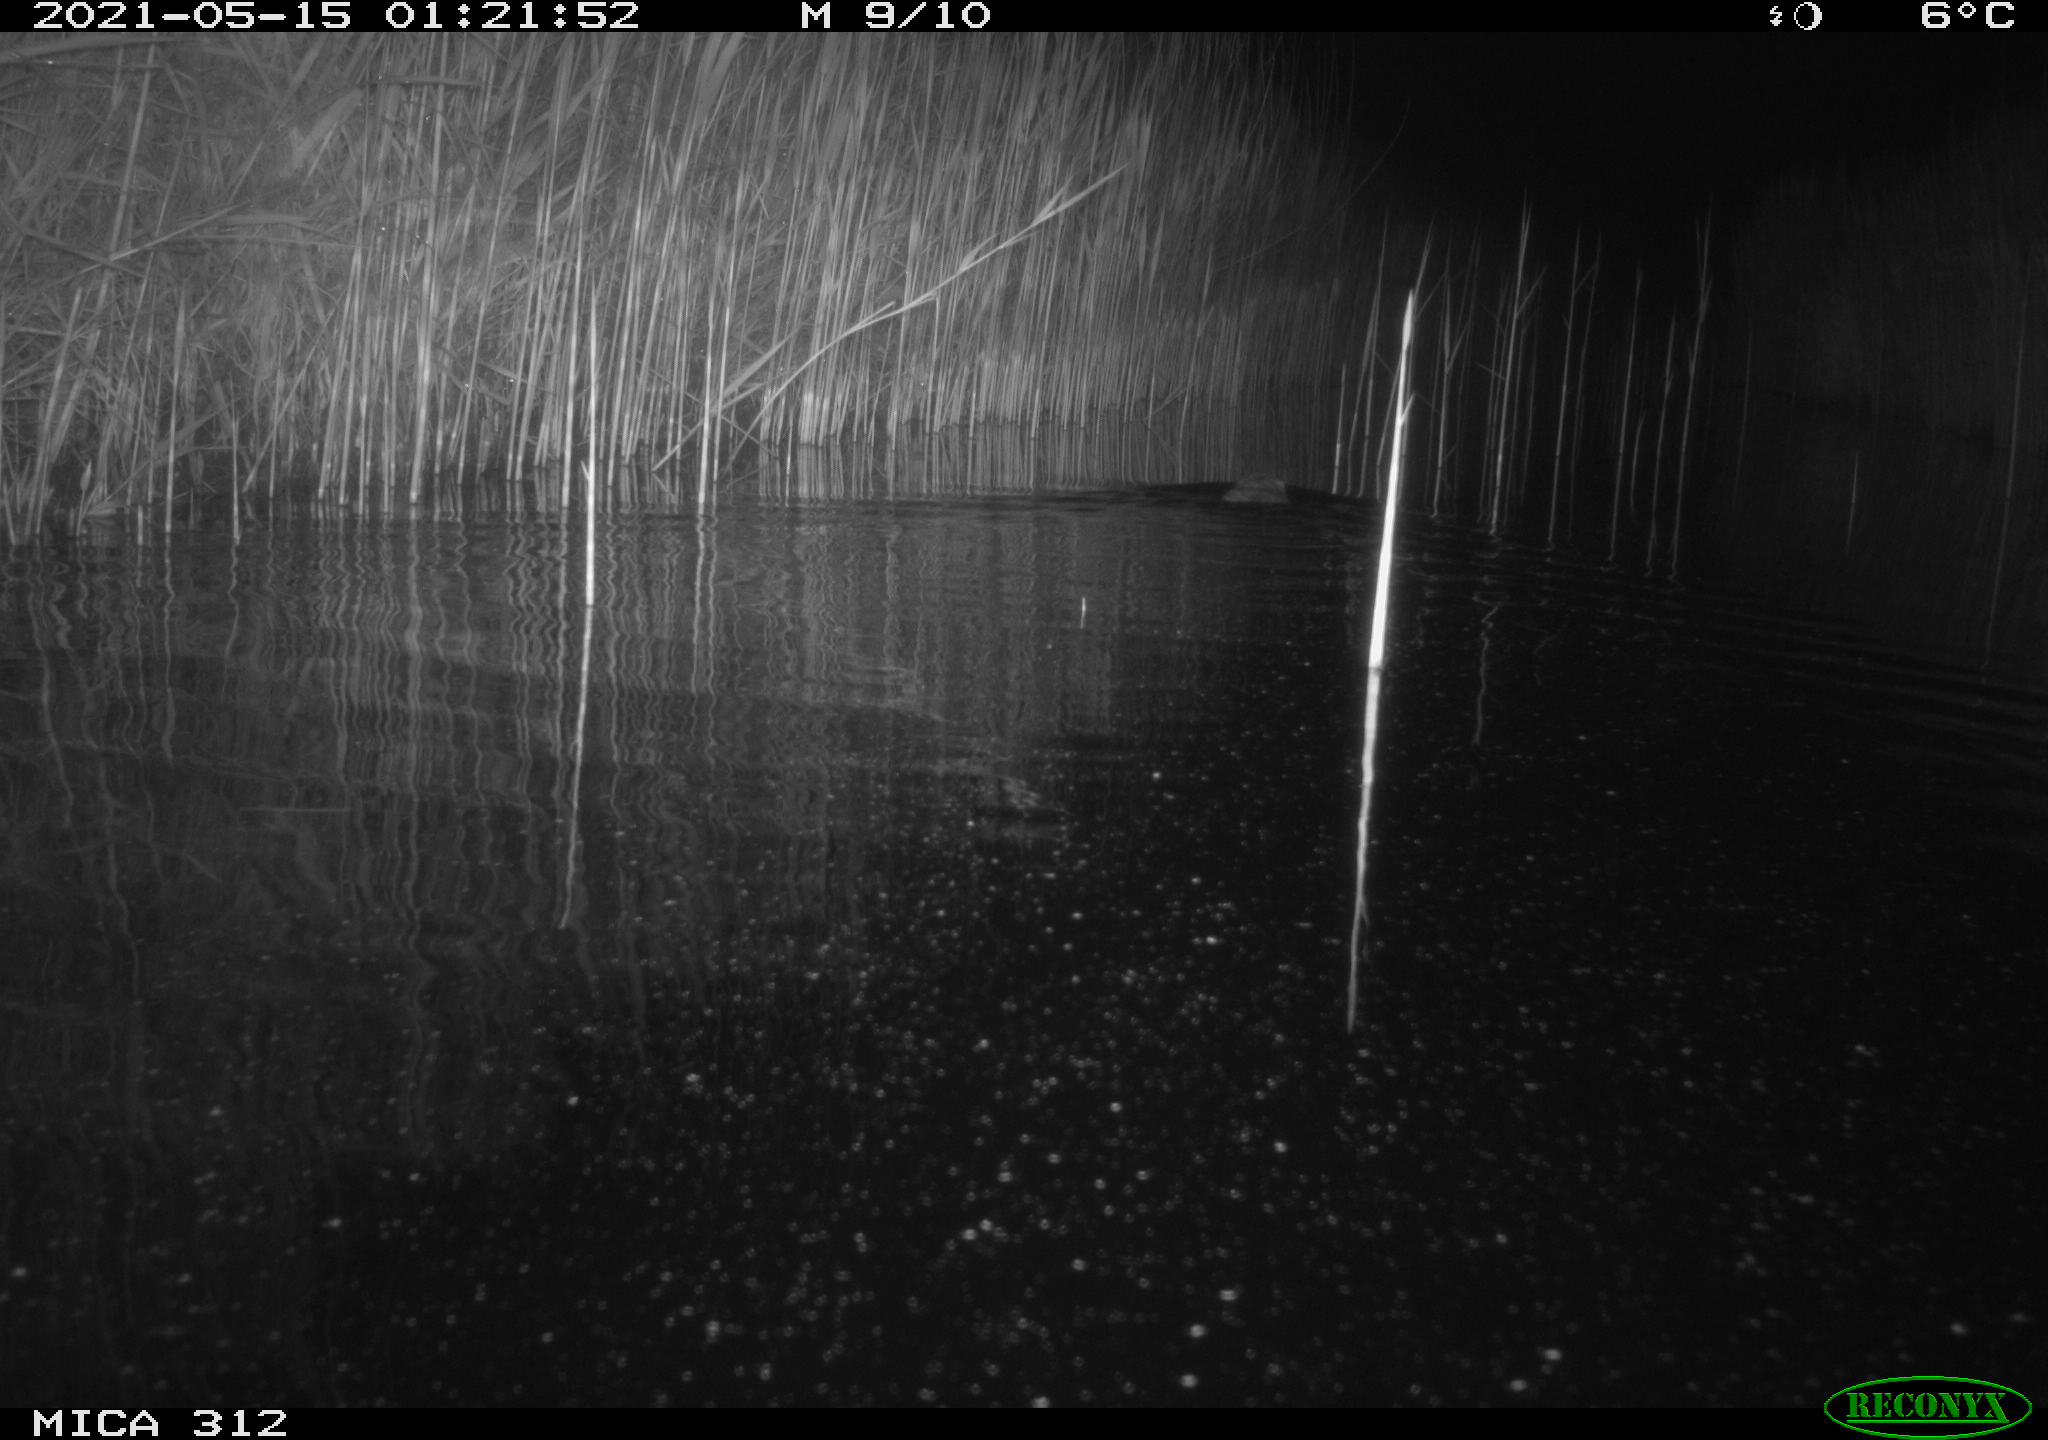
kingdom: Animalia
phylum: Chordata
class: Mammalia
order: Rodentia
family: Cricetidae
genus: Ondatra
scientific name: Ondatra zibethicus
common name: Muskrat
